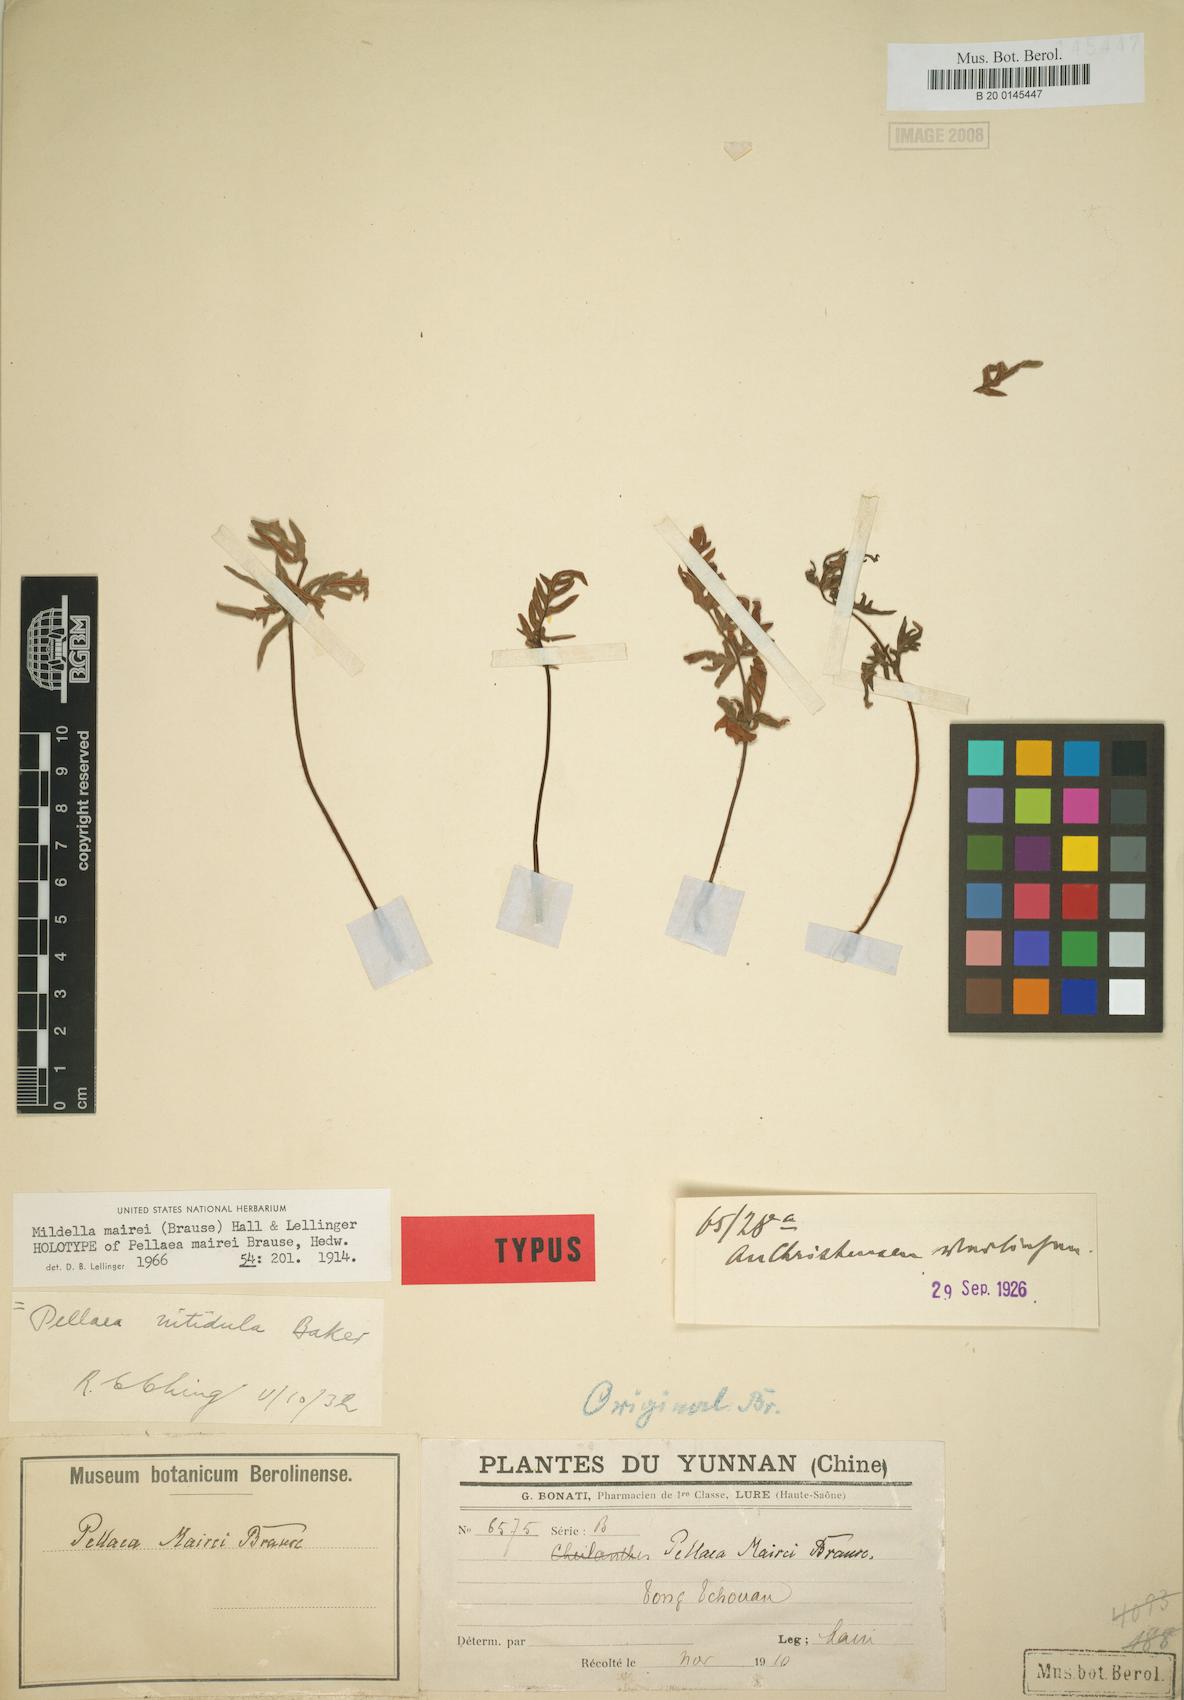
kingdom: Plantae
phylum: Tracheophyta
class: Polypodiopsida
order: Polypodiales
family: Pteridaceae
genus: Oeosporangium
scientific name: Oeosporangium mairei
